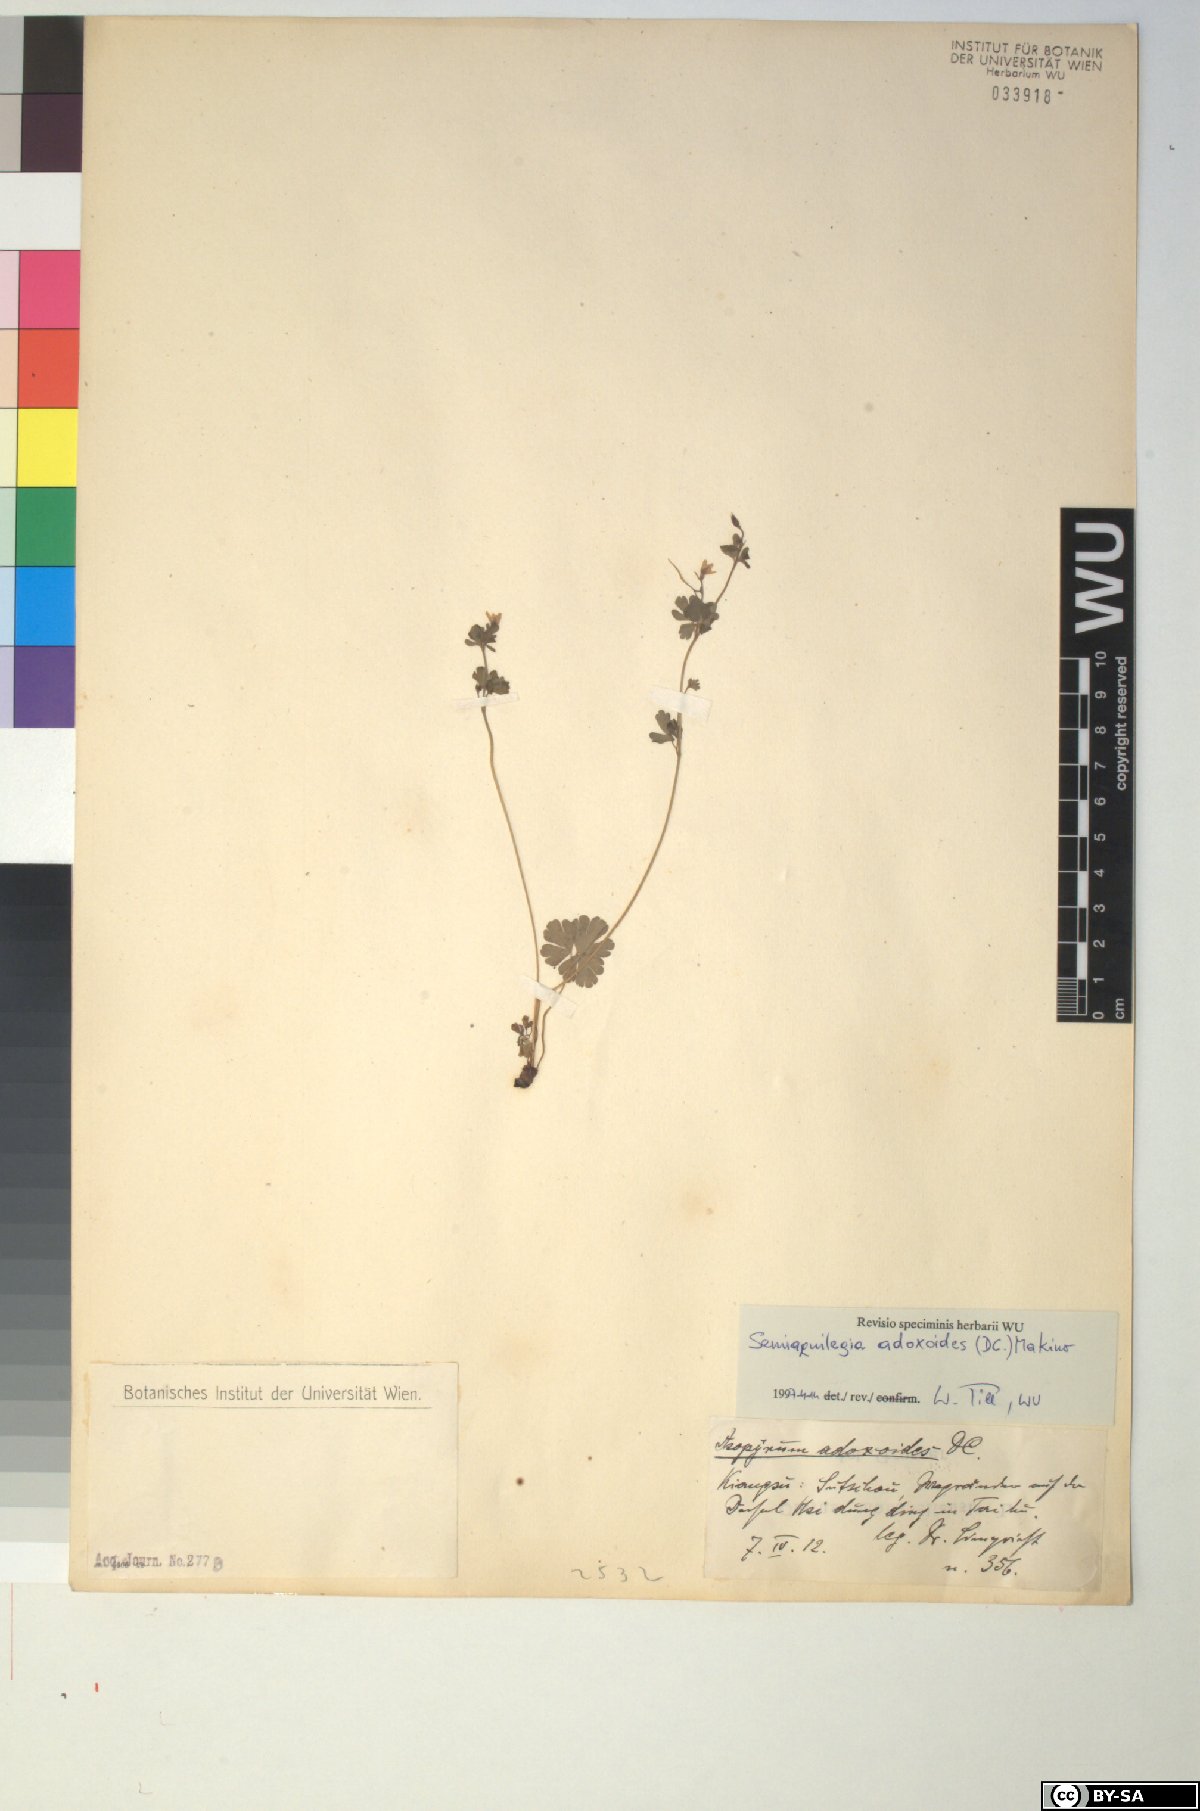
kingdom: Plantae
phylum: Tracheophyta
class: Magnoliopsida
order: Ranunculales
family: Ranunculaceae
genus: Semiaquilegia
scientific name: Semiaquilegia adoxoides
